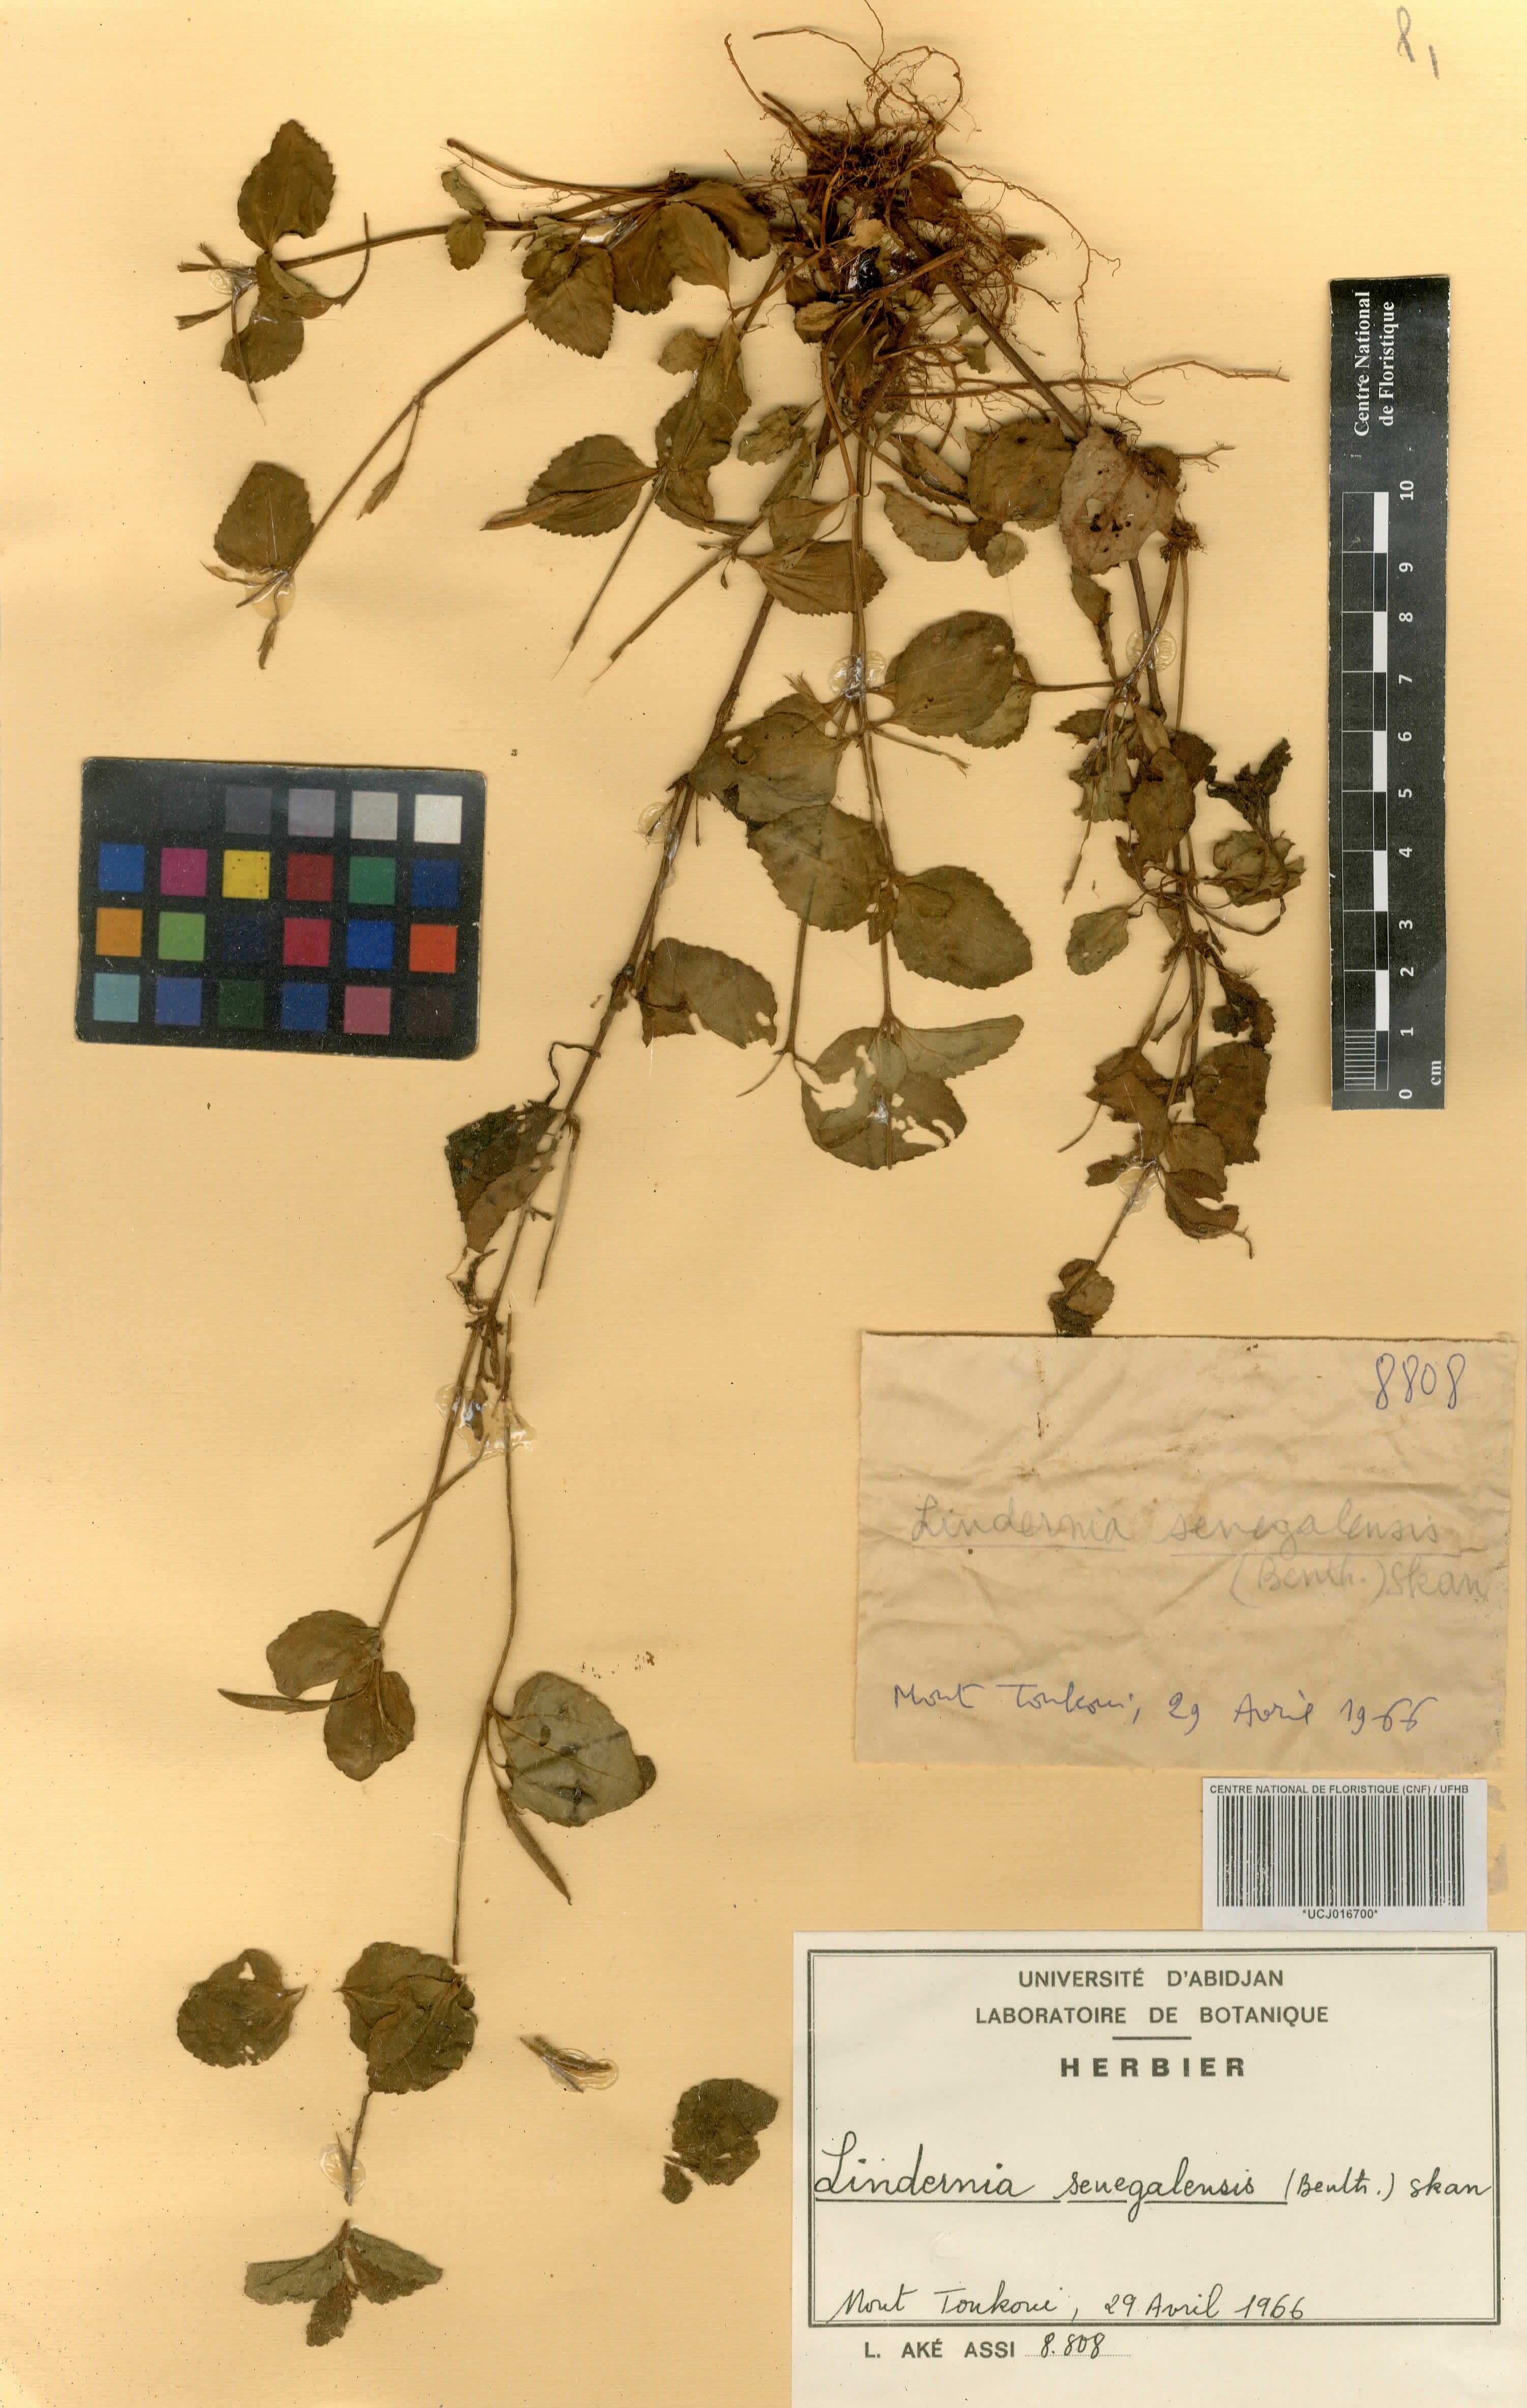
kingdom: Plantae
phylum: Tracheophyta
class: Magnoliopsida
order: Lamiales
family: Linderniaceae
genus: Vandellia
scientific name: Vandellia senegalensis
